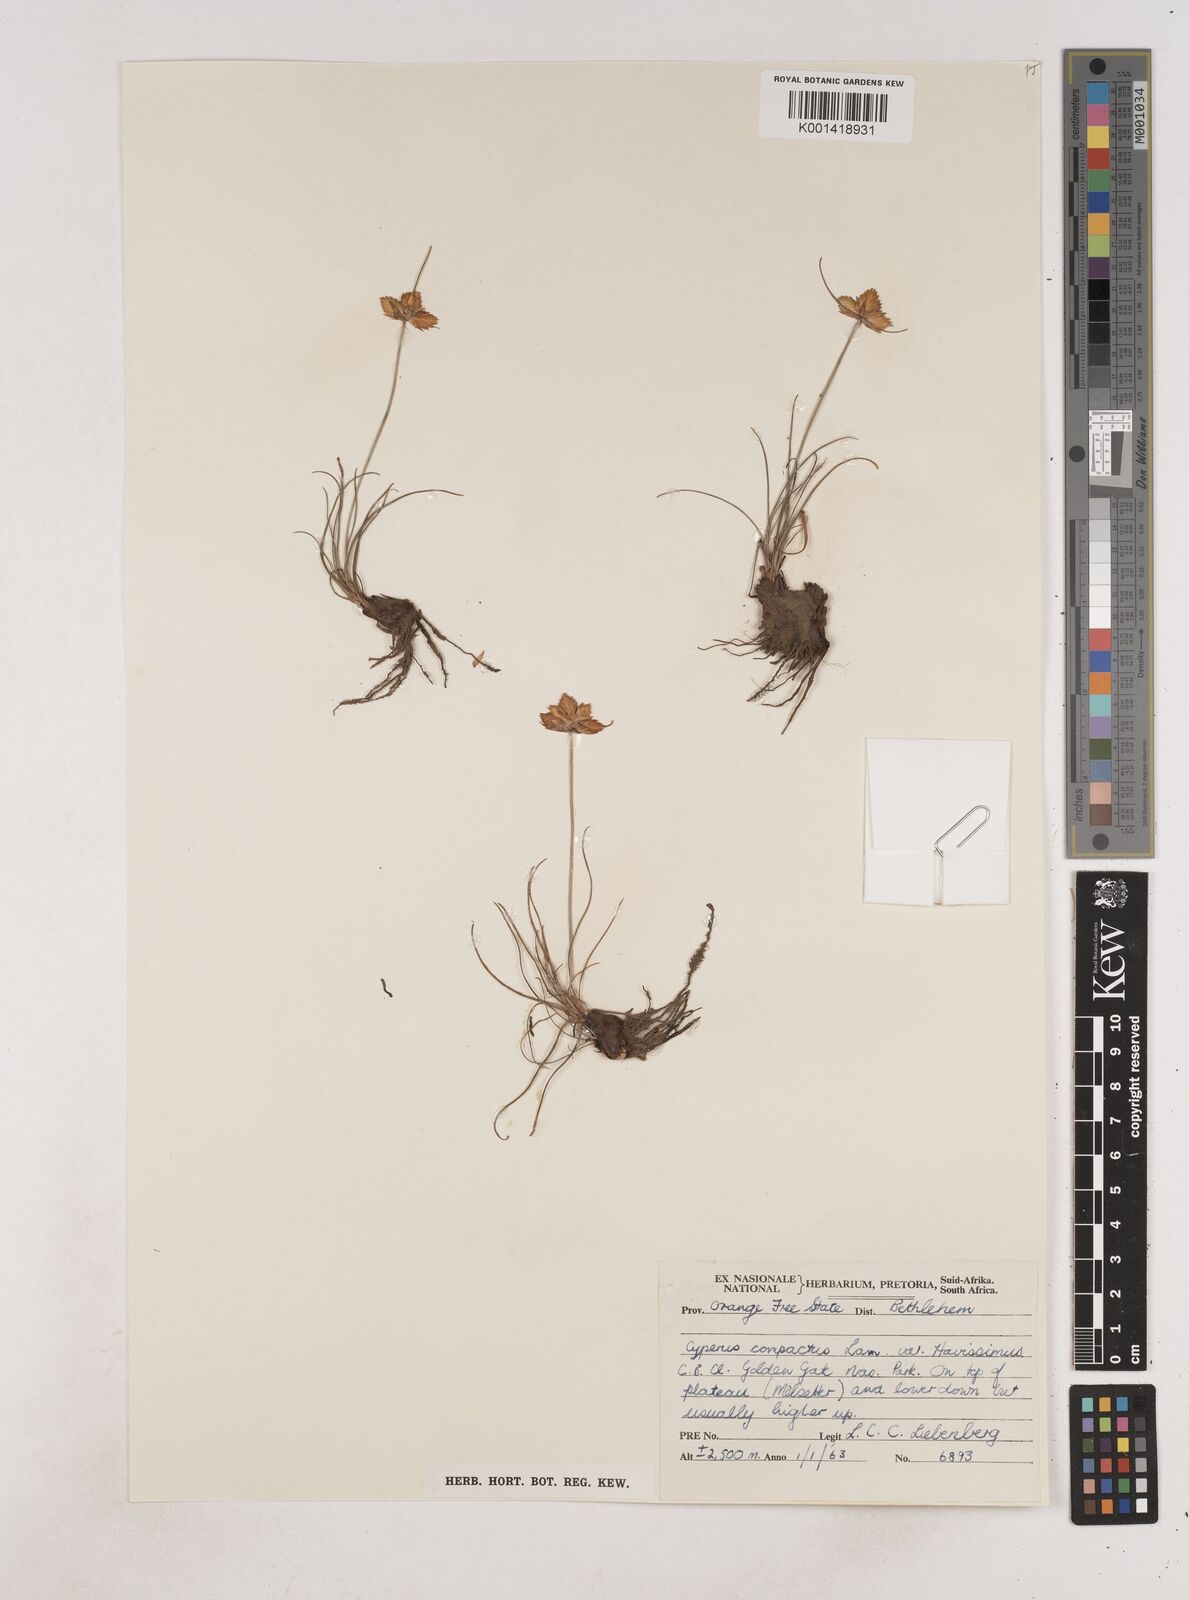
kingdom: Plantae
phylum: Tracheophyta
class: Liliopsida
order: Poales
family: Cyperaceae
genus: Cyperus
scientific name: Cyperus sphaerocephalus
